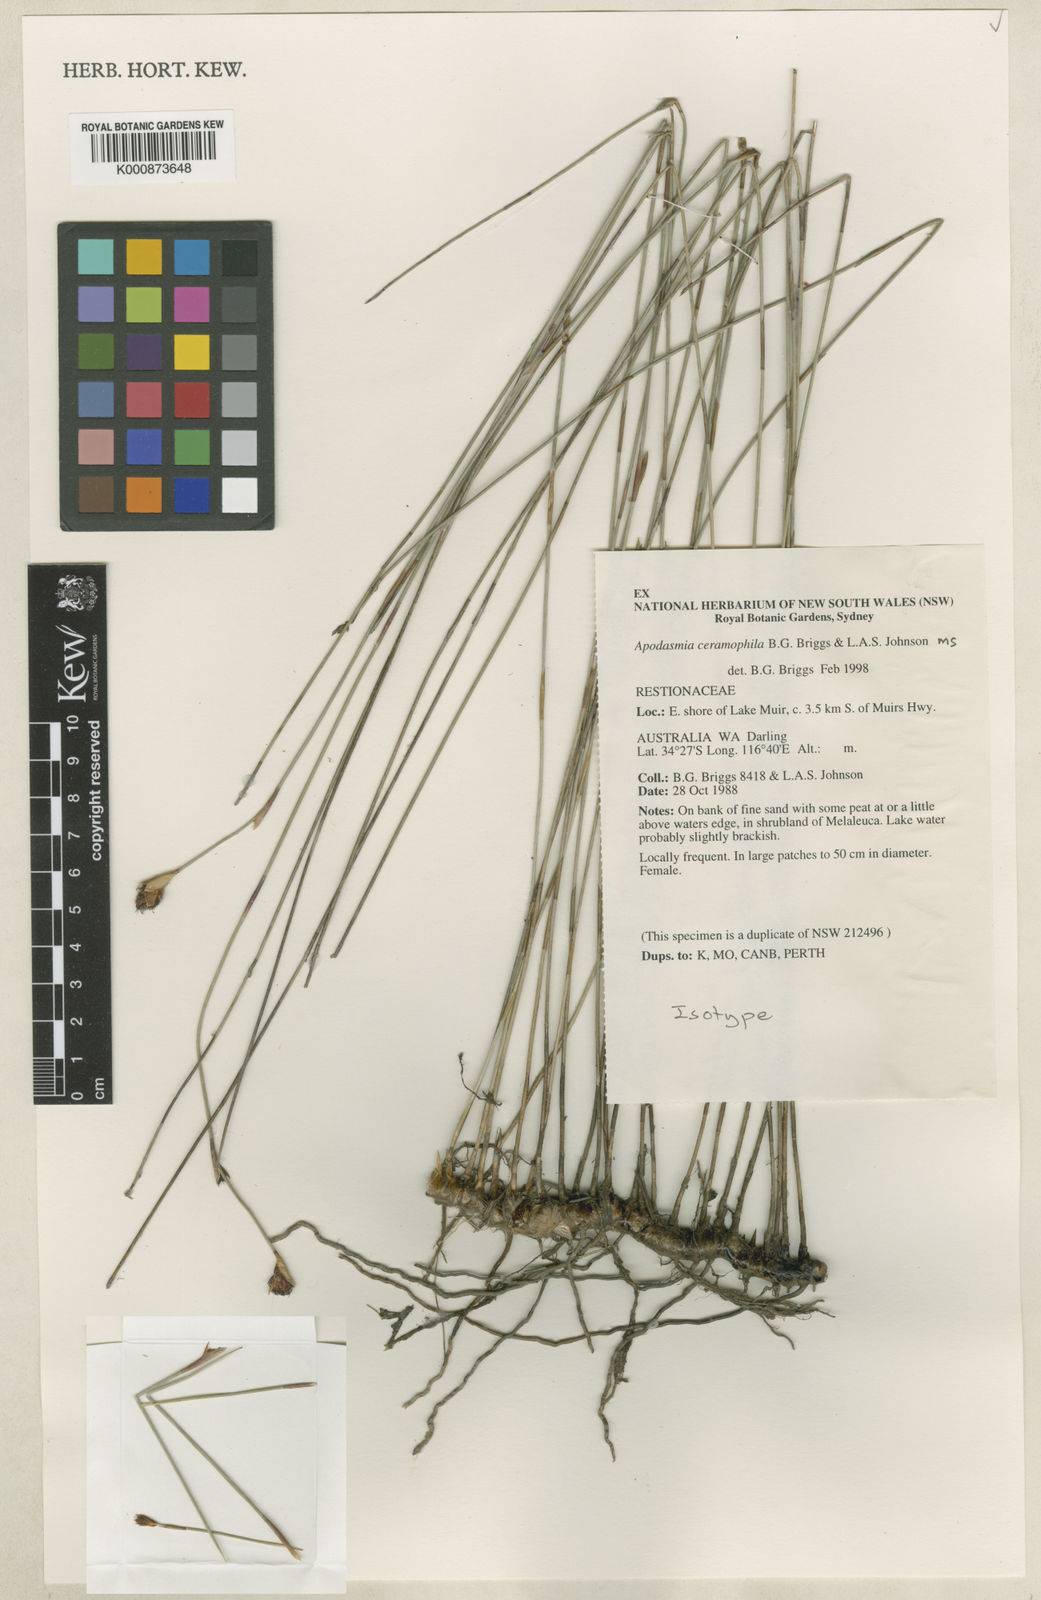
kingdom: Plantae
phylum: Tracheophyta
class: Liliopsida
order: Poales
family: Restionaceae
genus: Apodasmia
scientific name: Apodasmia ceramophila
